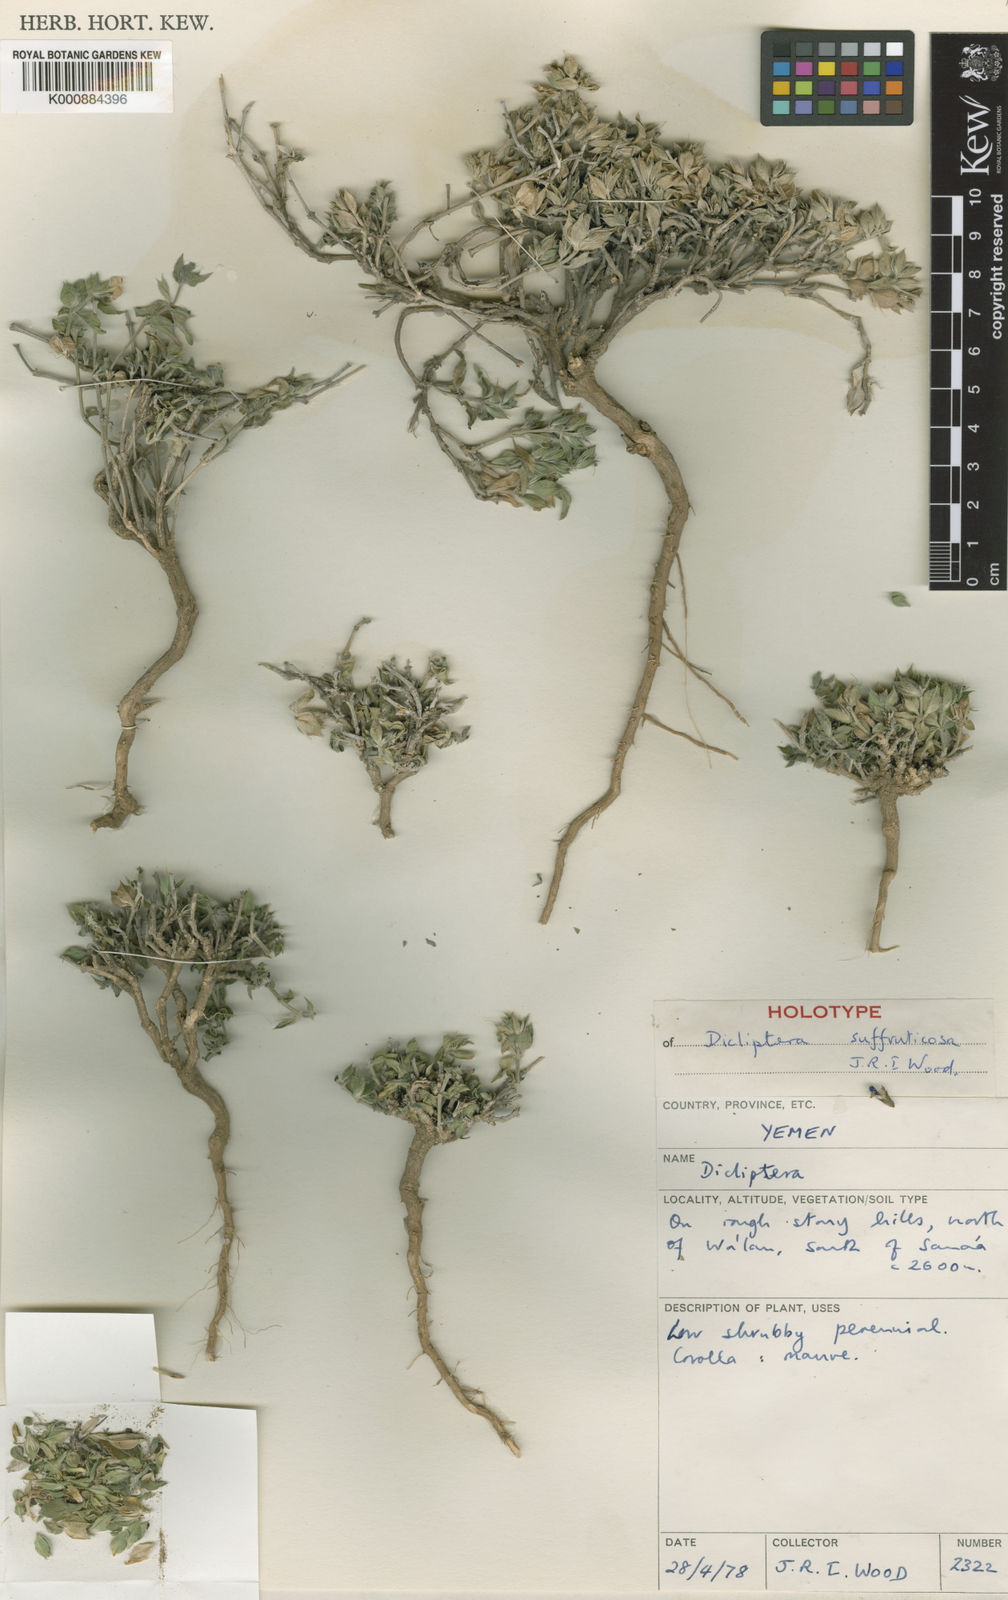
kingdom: Plantae
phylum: Tracheophyta
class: Magnoliopsida
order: Lamiales
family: Acanthaceae
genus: Dicliptera
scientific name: Dicliptera
